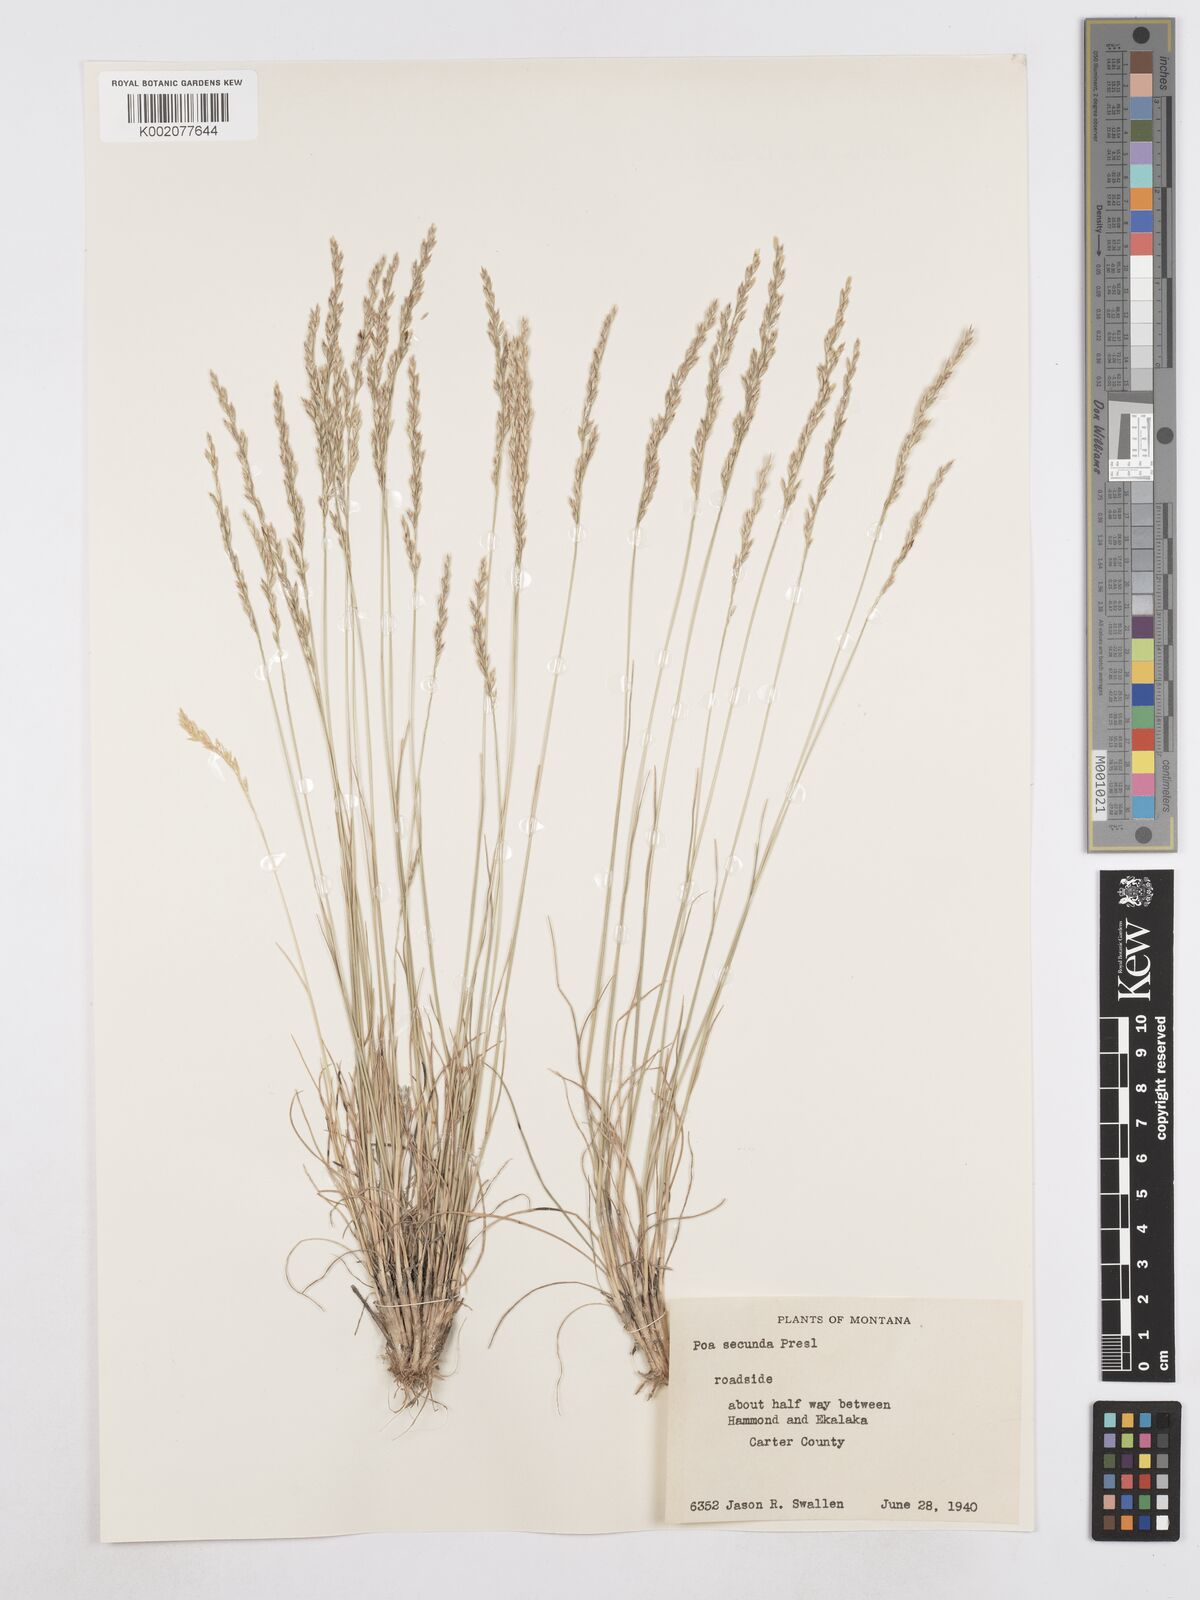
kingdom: Plantae
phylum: Tracheophyta
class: Liliopsida
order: Poales
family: Poaceae
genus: Poa
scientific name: Poa secunda
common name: Sandberg bluegrass
